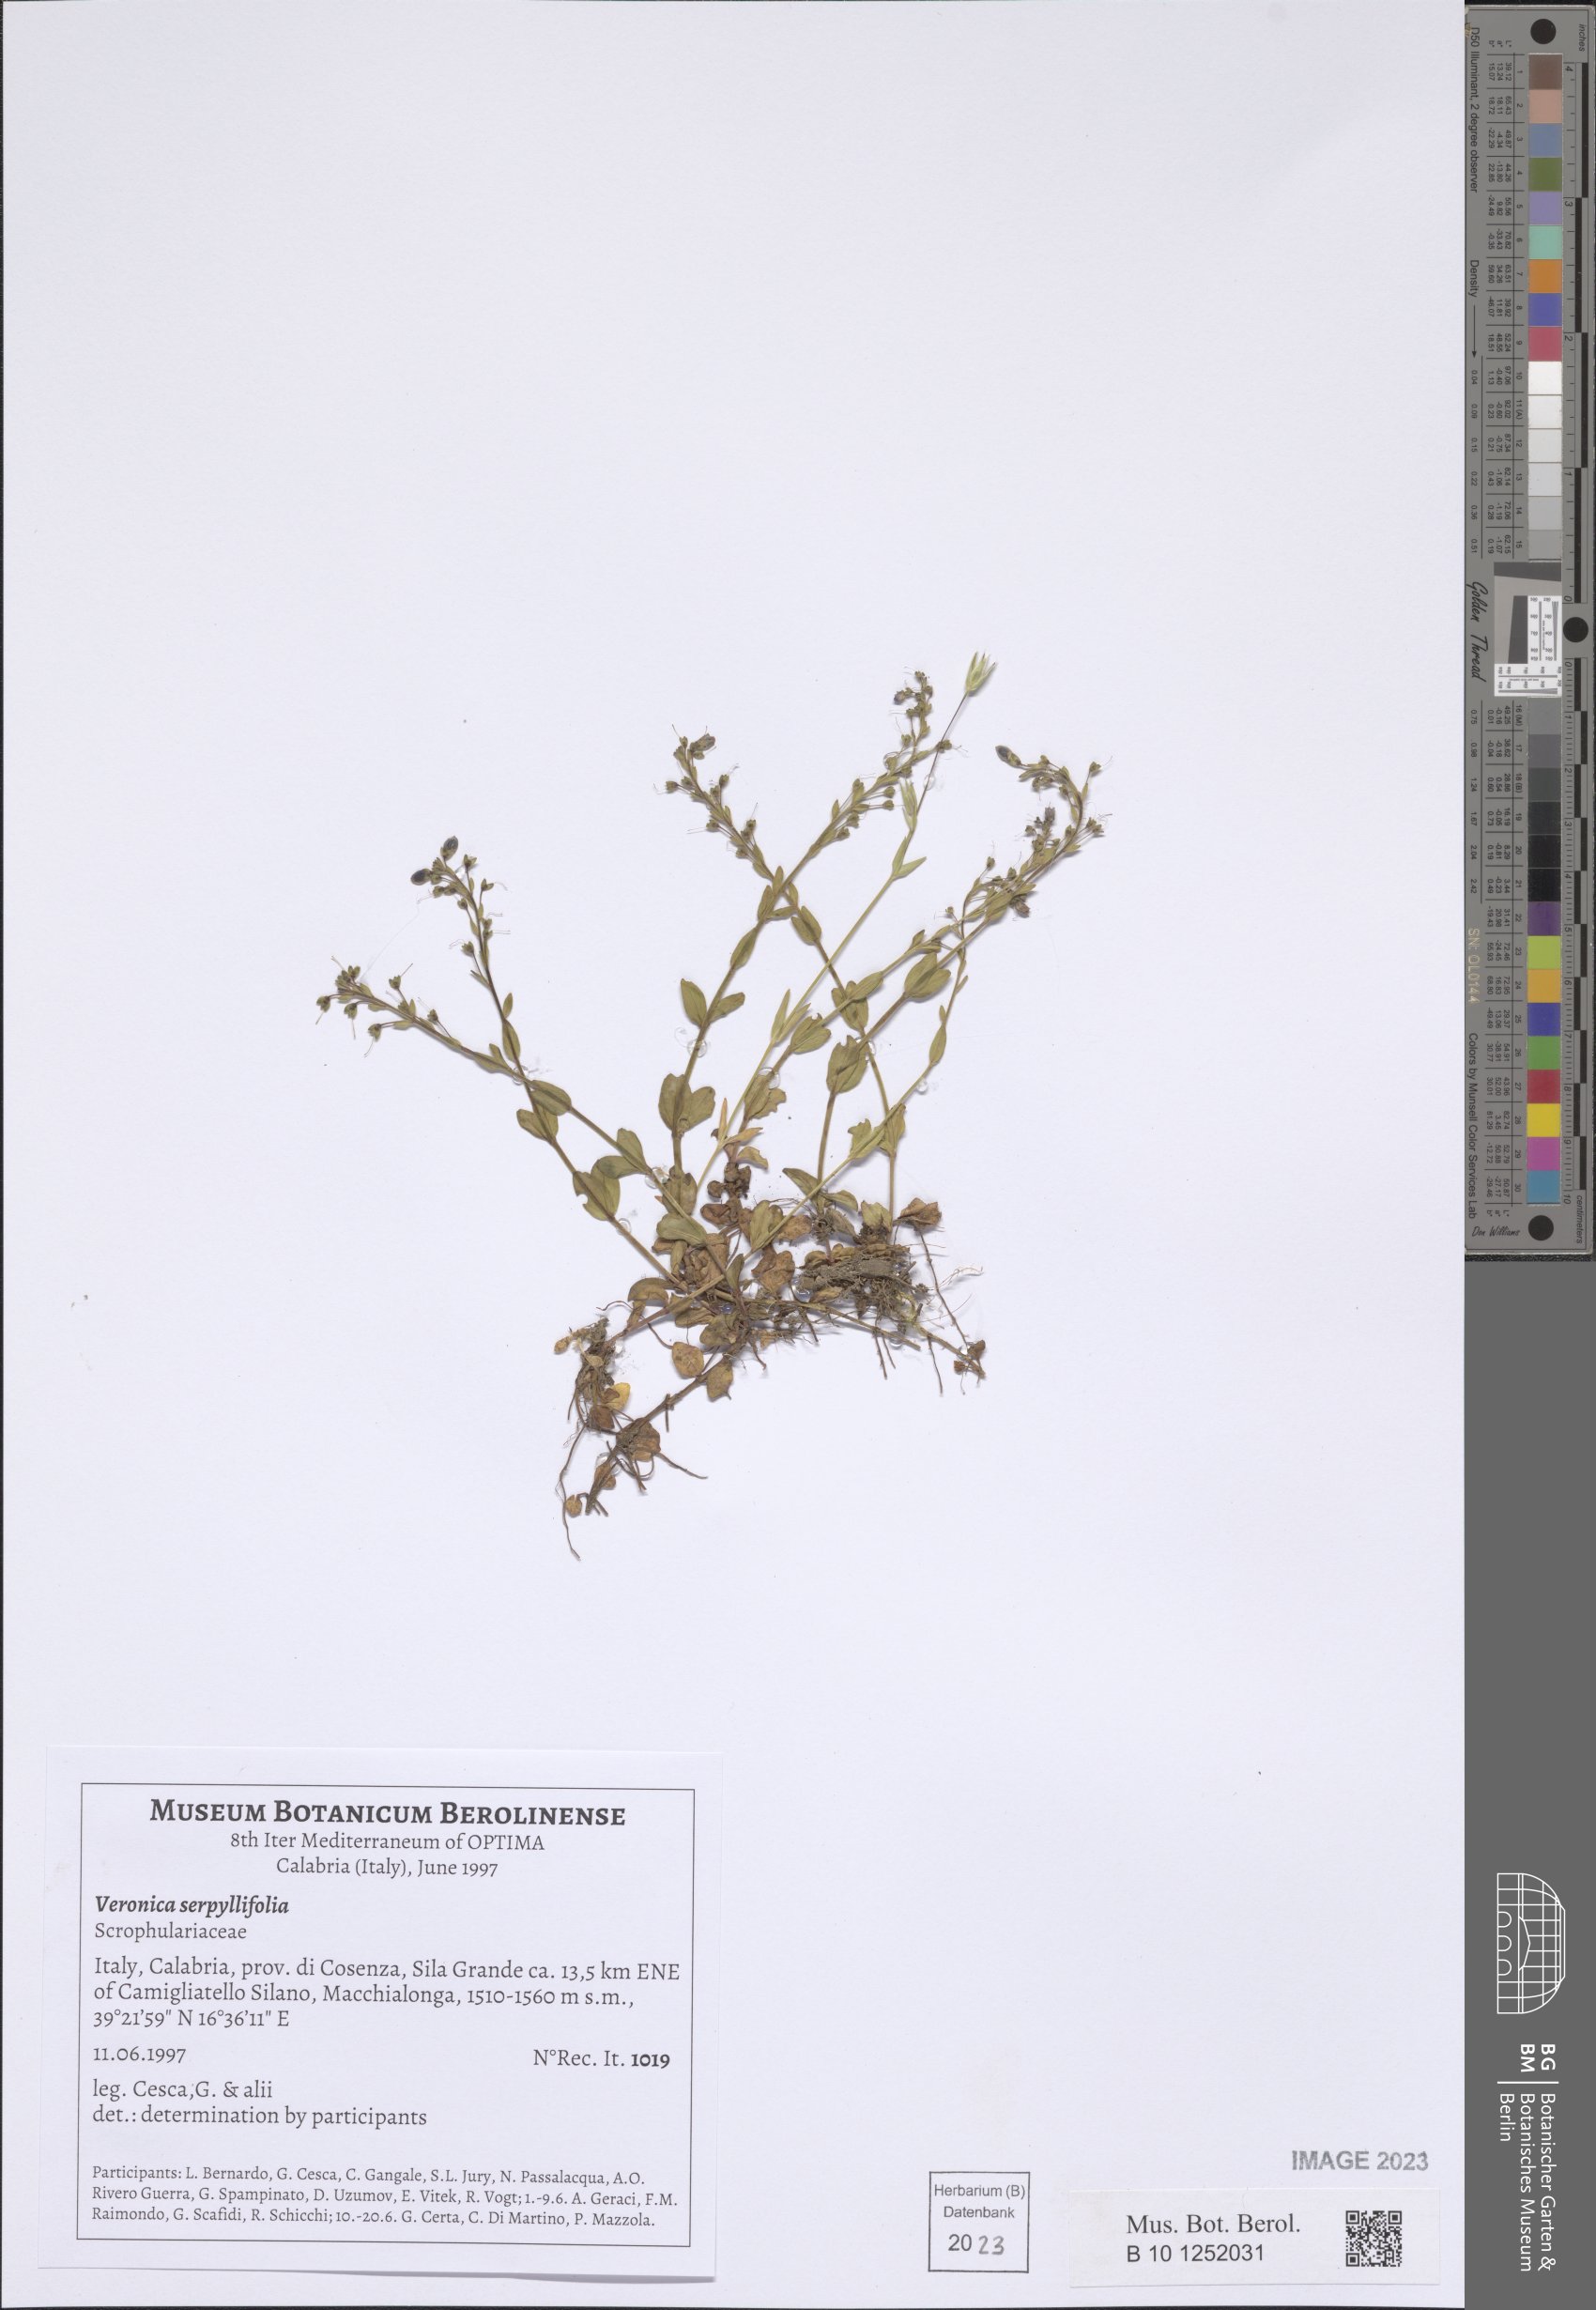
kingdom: Plantae
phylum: Tracheophyta
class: Magnoliopsida
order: Lamiales
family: Plantaginaceae
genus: Veronica
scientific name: Veronica serpyllifolia
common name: Thyme-leaved speedwell
